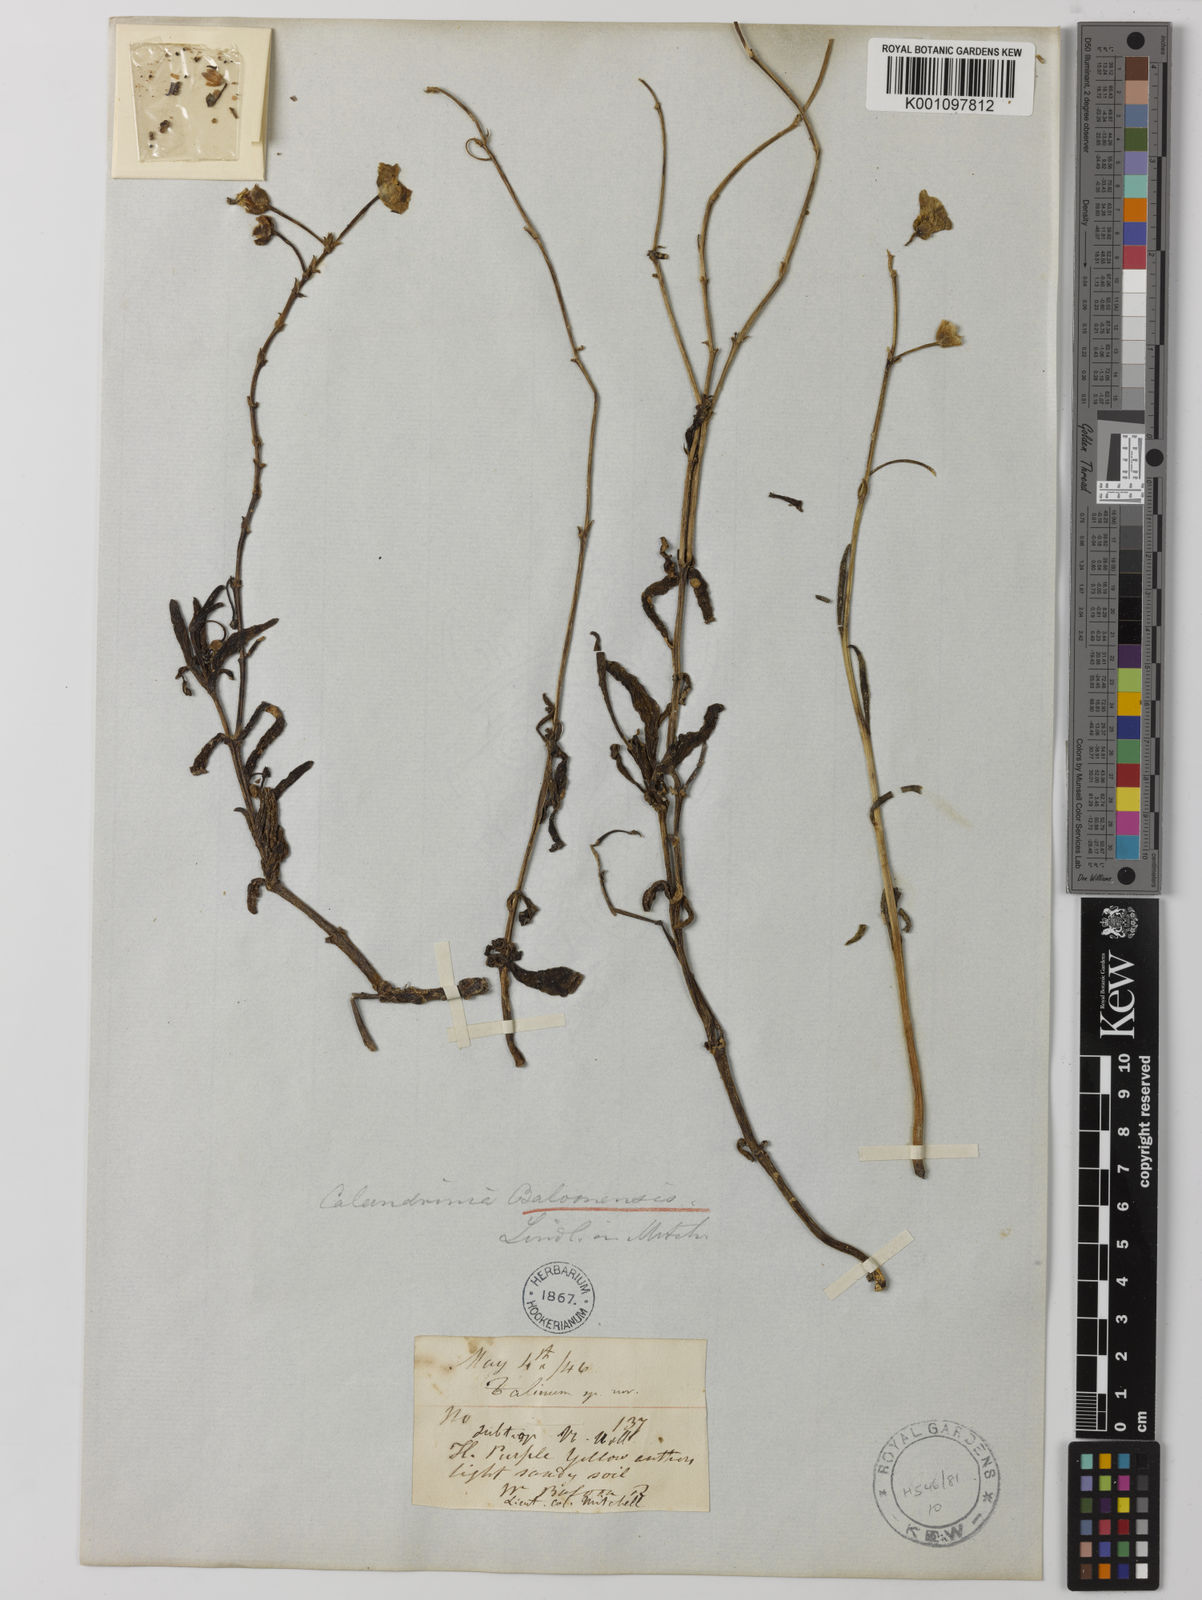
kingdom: Plantae
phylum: Tracheophyta
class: Magnoliopsida
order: Caryophyllales
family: Montiaceae
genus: Rumicastrum
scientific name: Rumicastrum balonense
